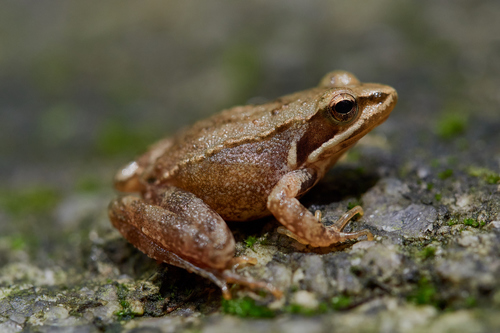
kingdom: Animalia
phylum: Chordata
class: Amphibia
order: Anura
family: Ranidae
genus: Rana
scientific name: Rana iberica
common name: Iberian frog
